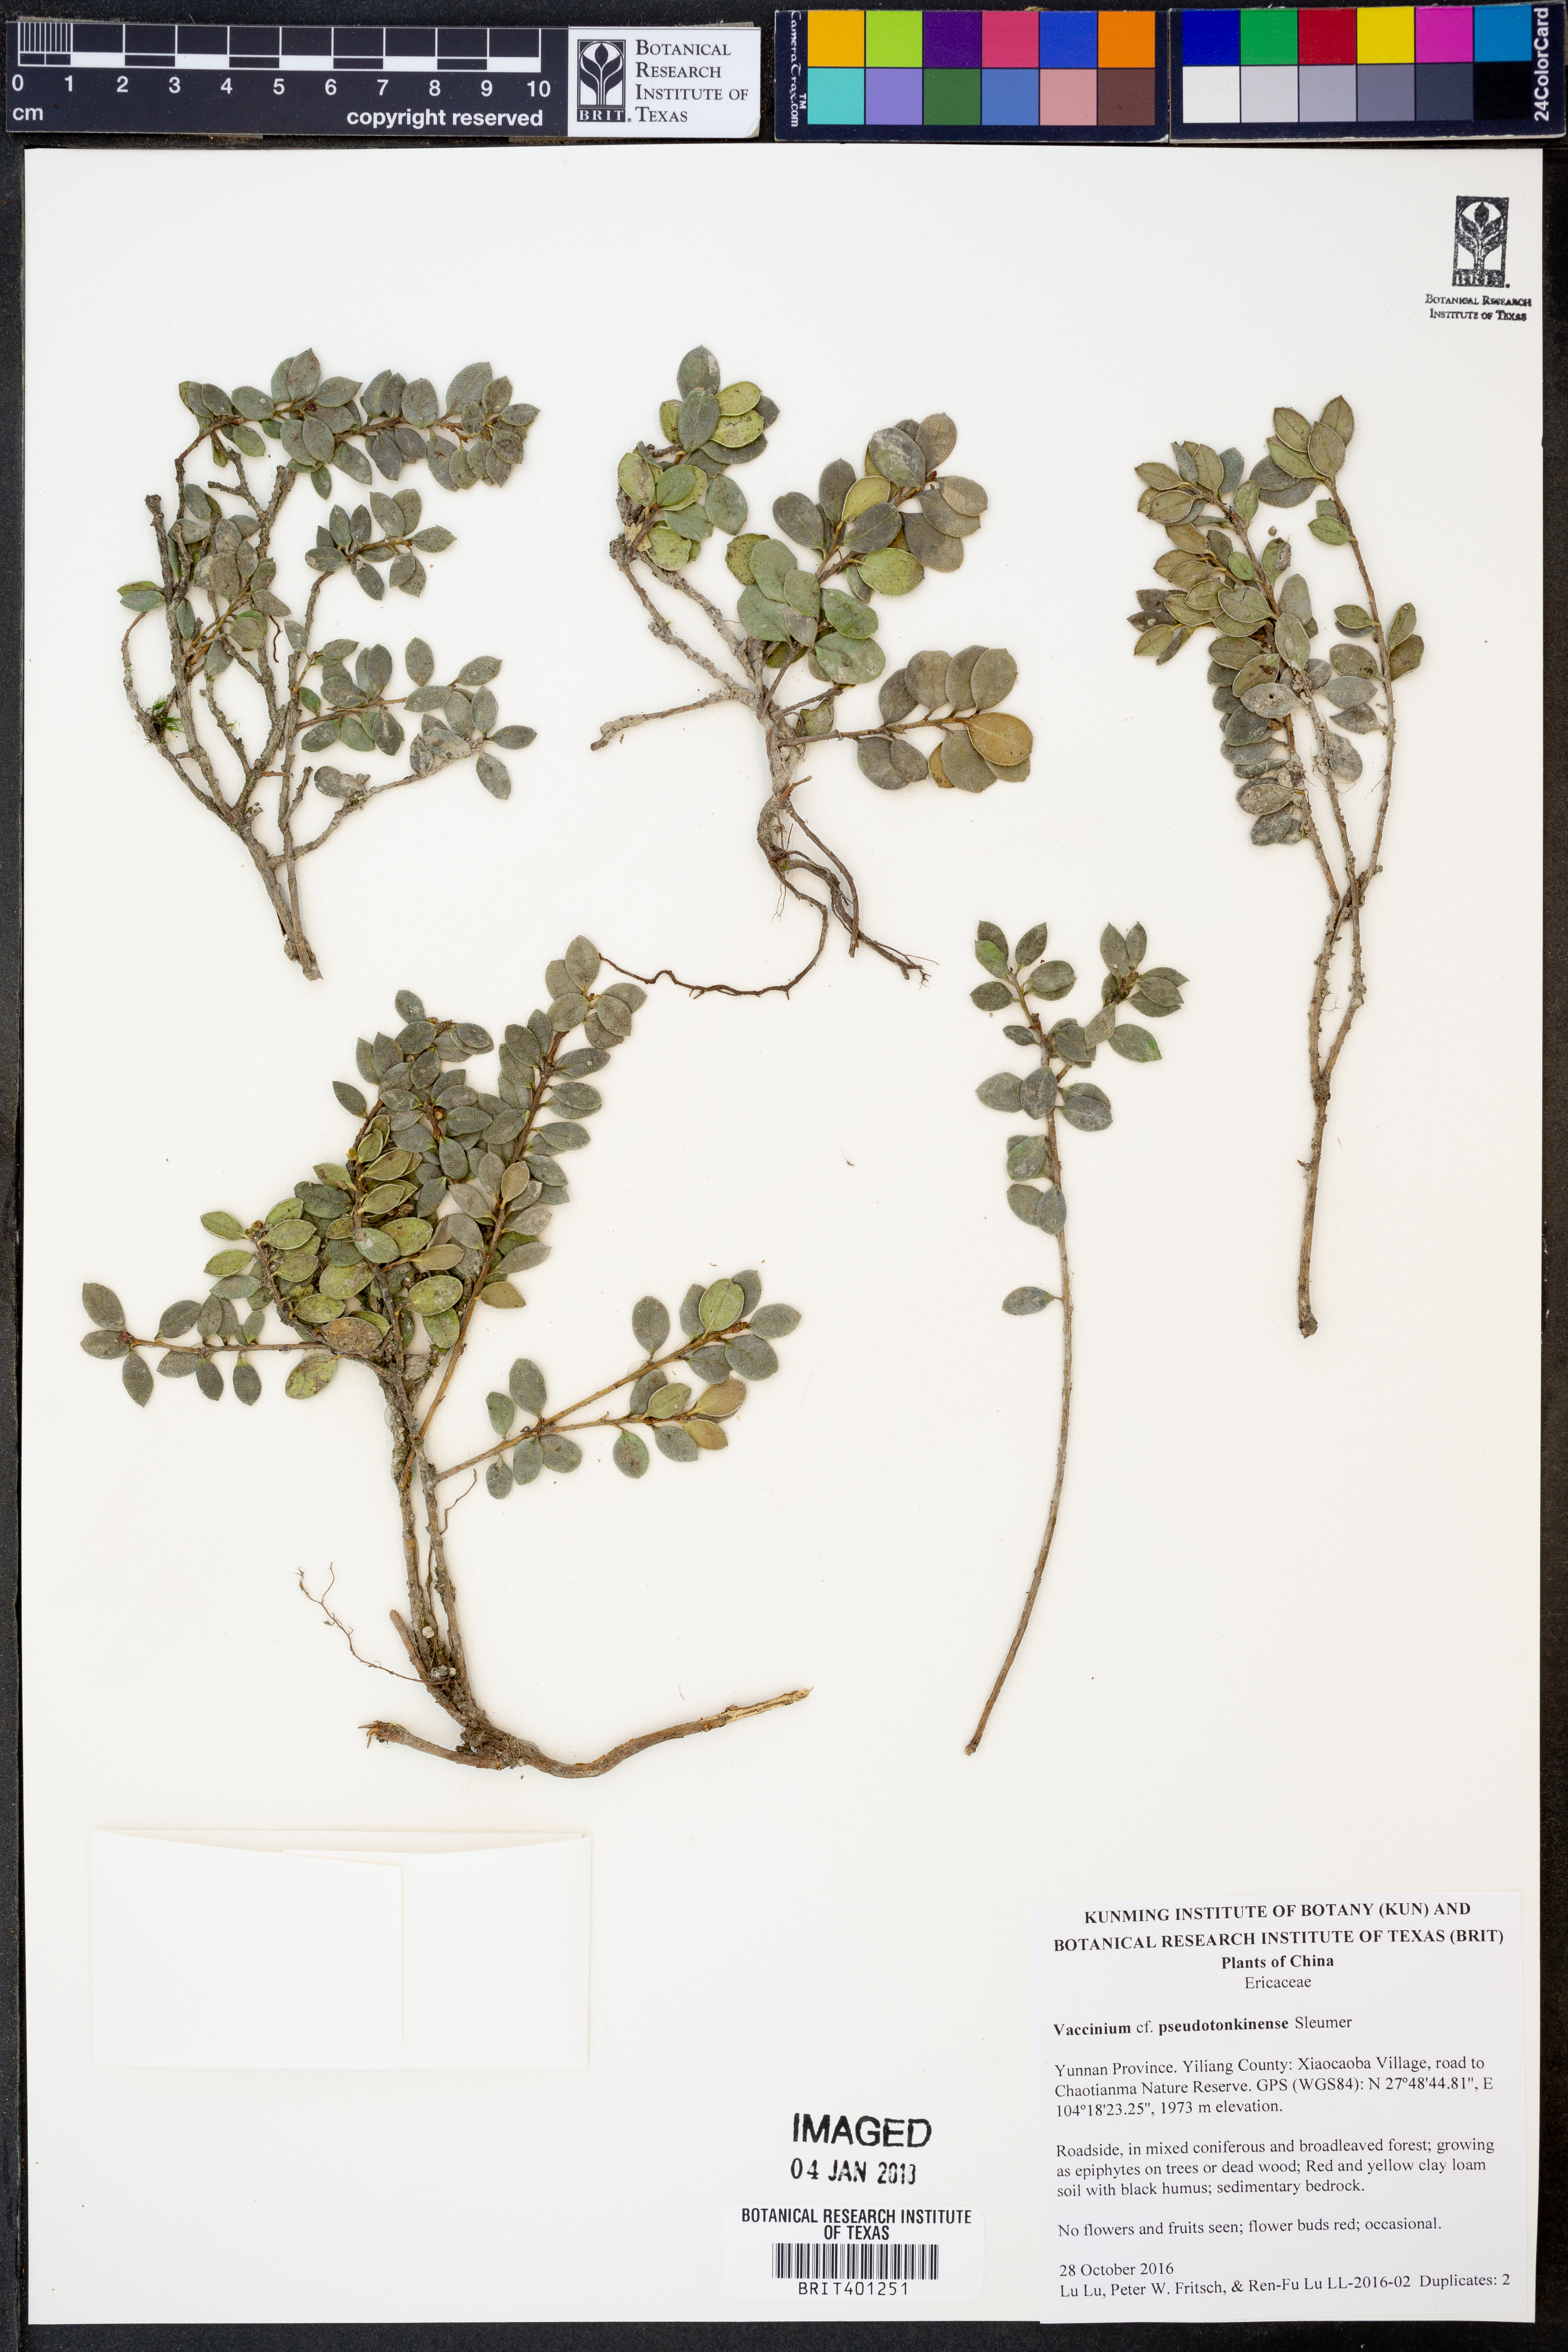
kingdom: Plantae
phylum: Tracheophyta
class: Magnoliopsida
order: Ericales
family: Ericaceae
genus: Vaccinium
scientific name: Vaccinium pseudotonkinense
